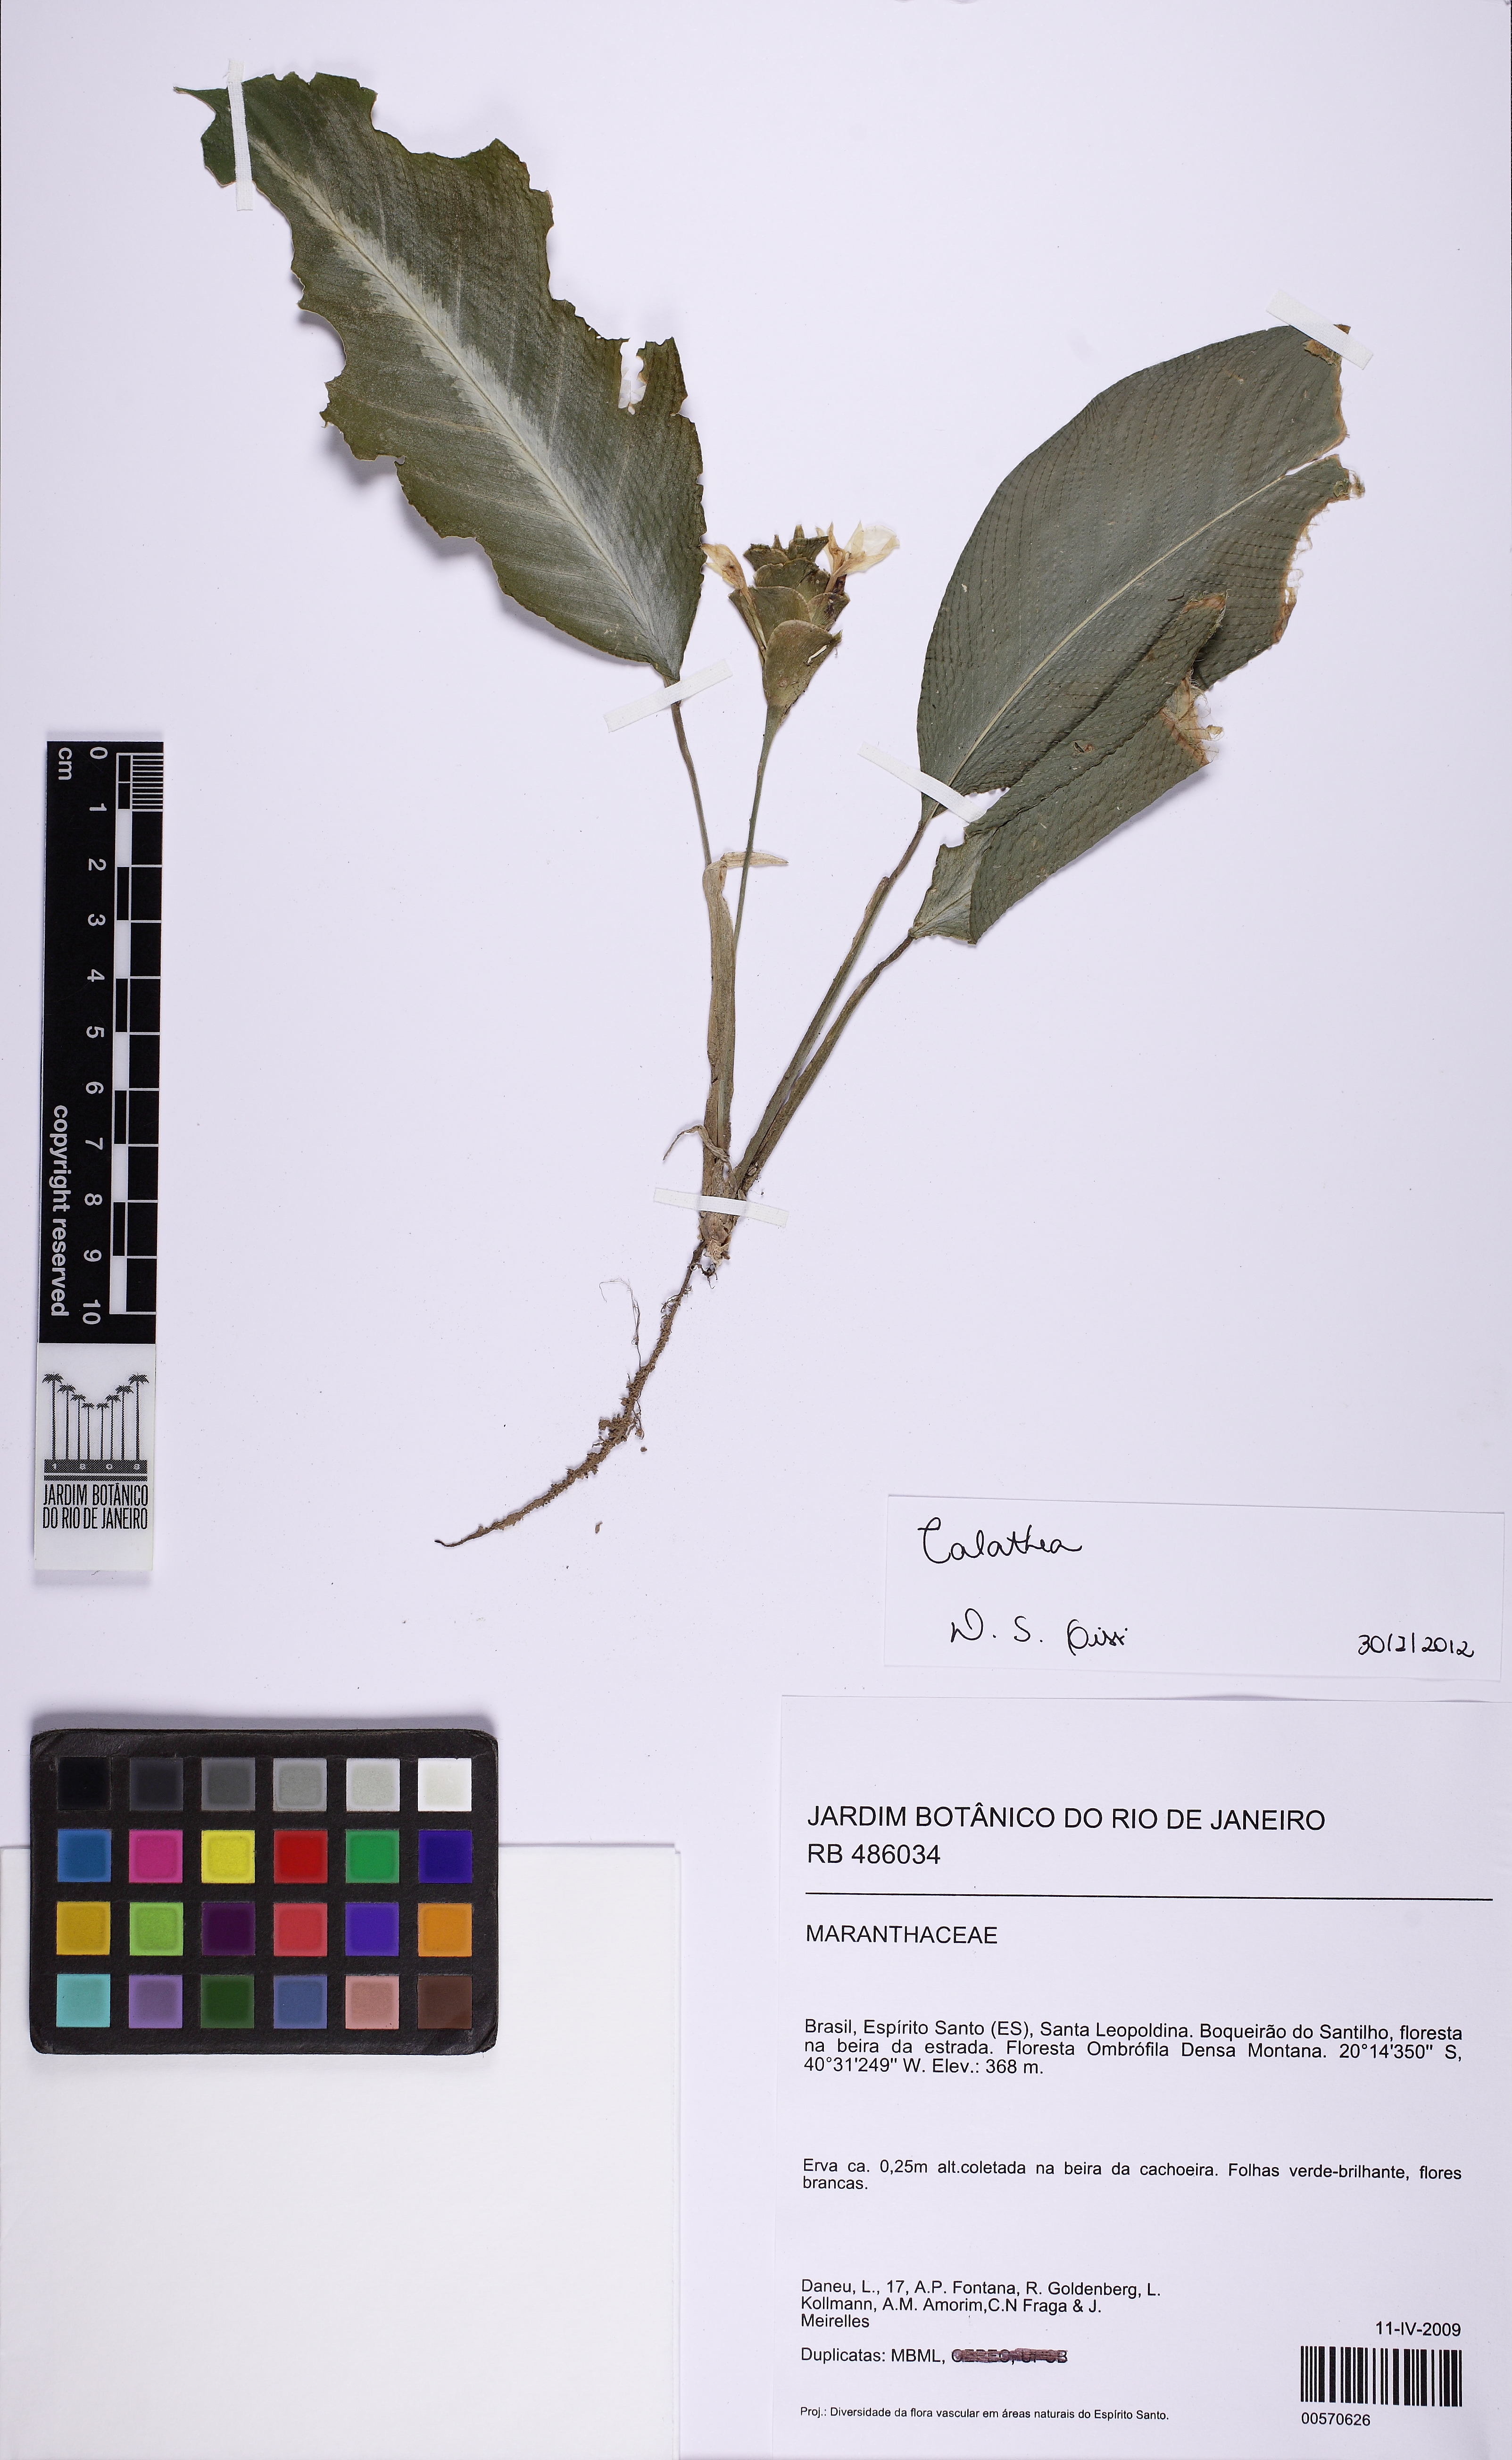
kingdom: Plantae
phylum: Tracheophyta
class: Liliopsida
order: Zingiberales
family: Marantaceae
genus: Calathea
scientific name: Calathea
